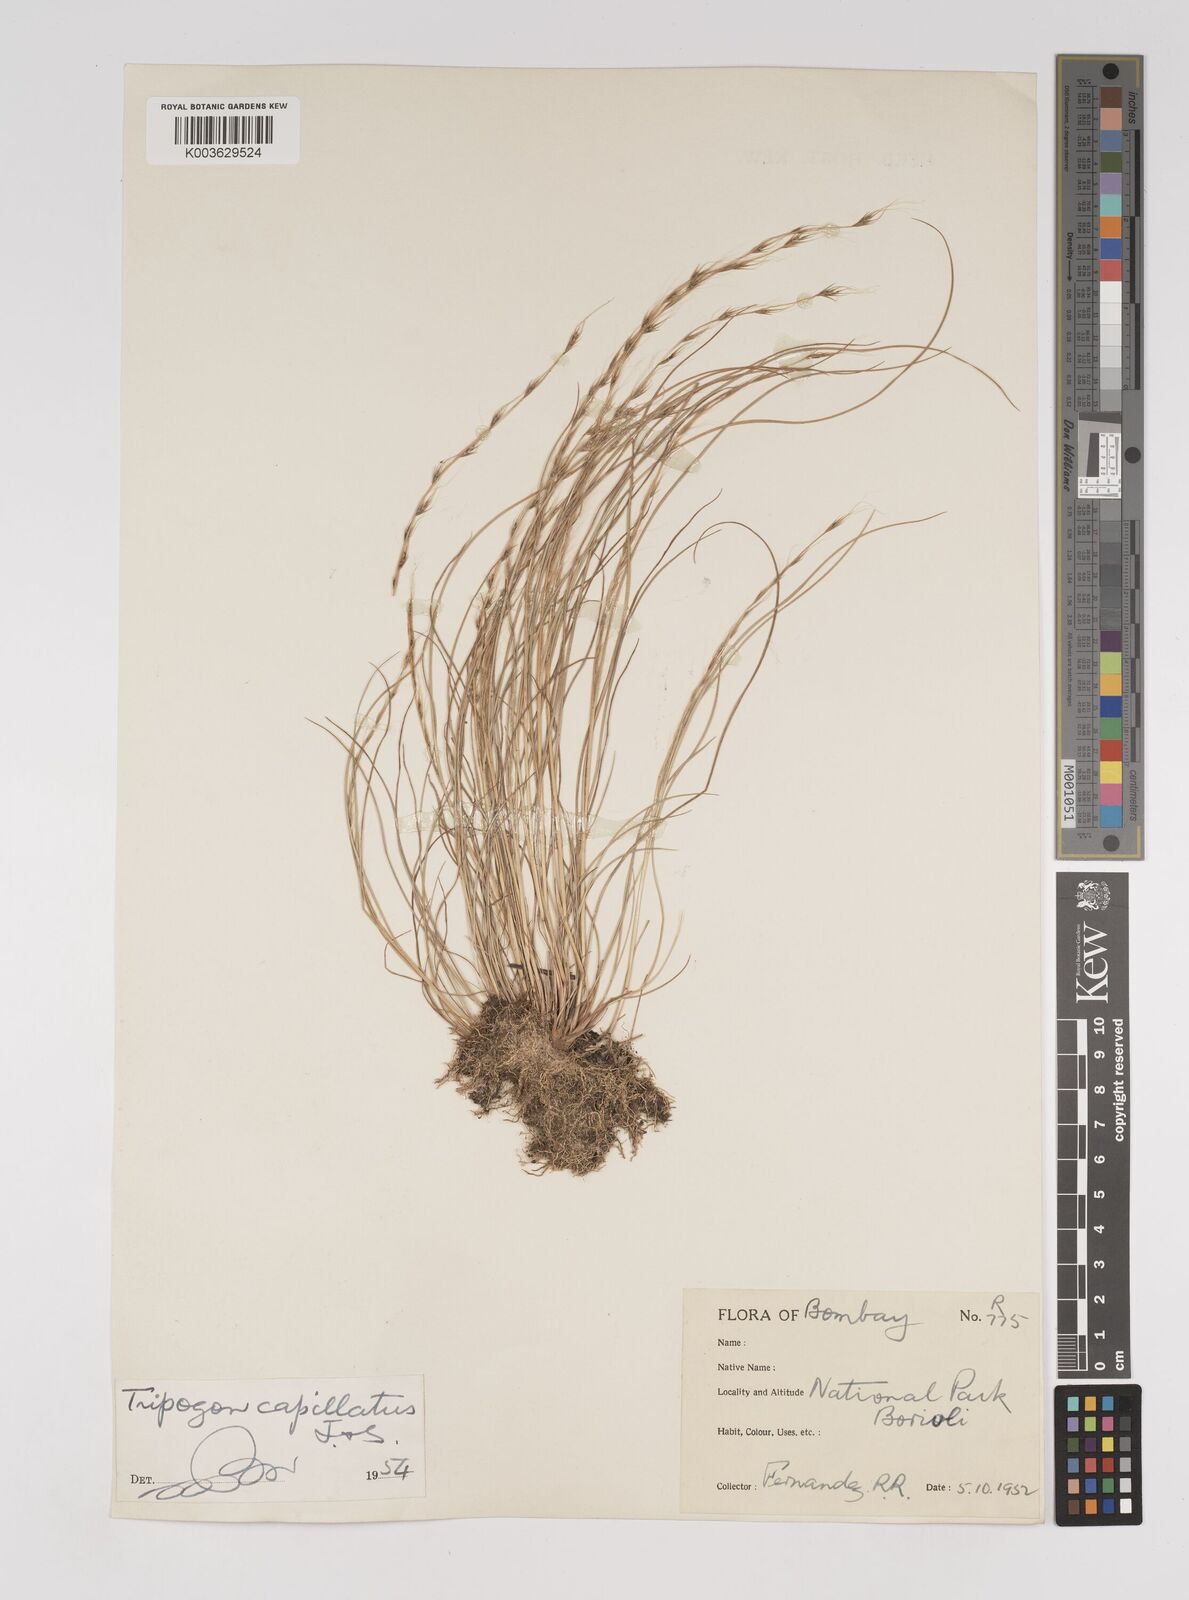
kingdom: Plantae
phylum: Tracheophyta
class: Liliopsida
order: Poales
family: Poaceae
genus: Tripogon
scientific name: Tripogon capillatus
